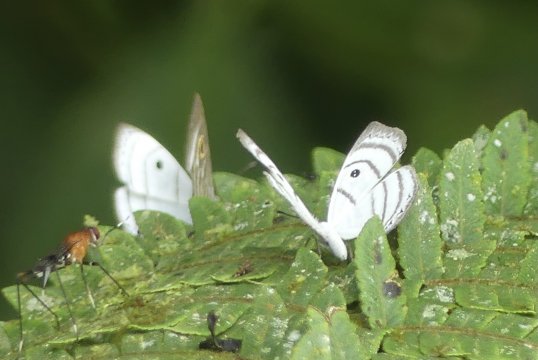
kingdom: Animalia
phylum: Arthropoda
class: Insecta
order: Lepidoptera
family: Riodinidae
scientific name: Riodinidae
